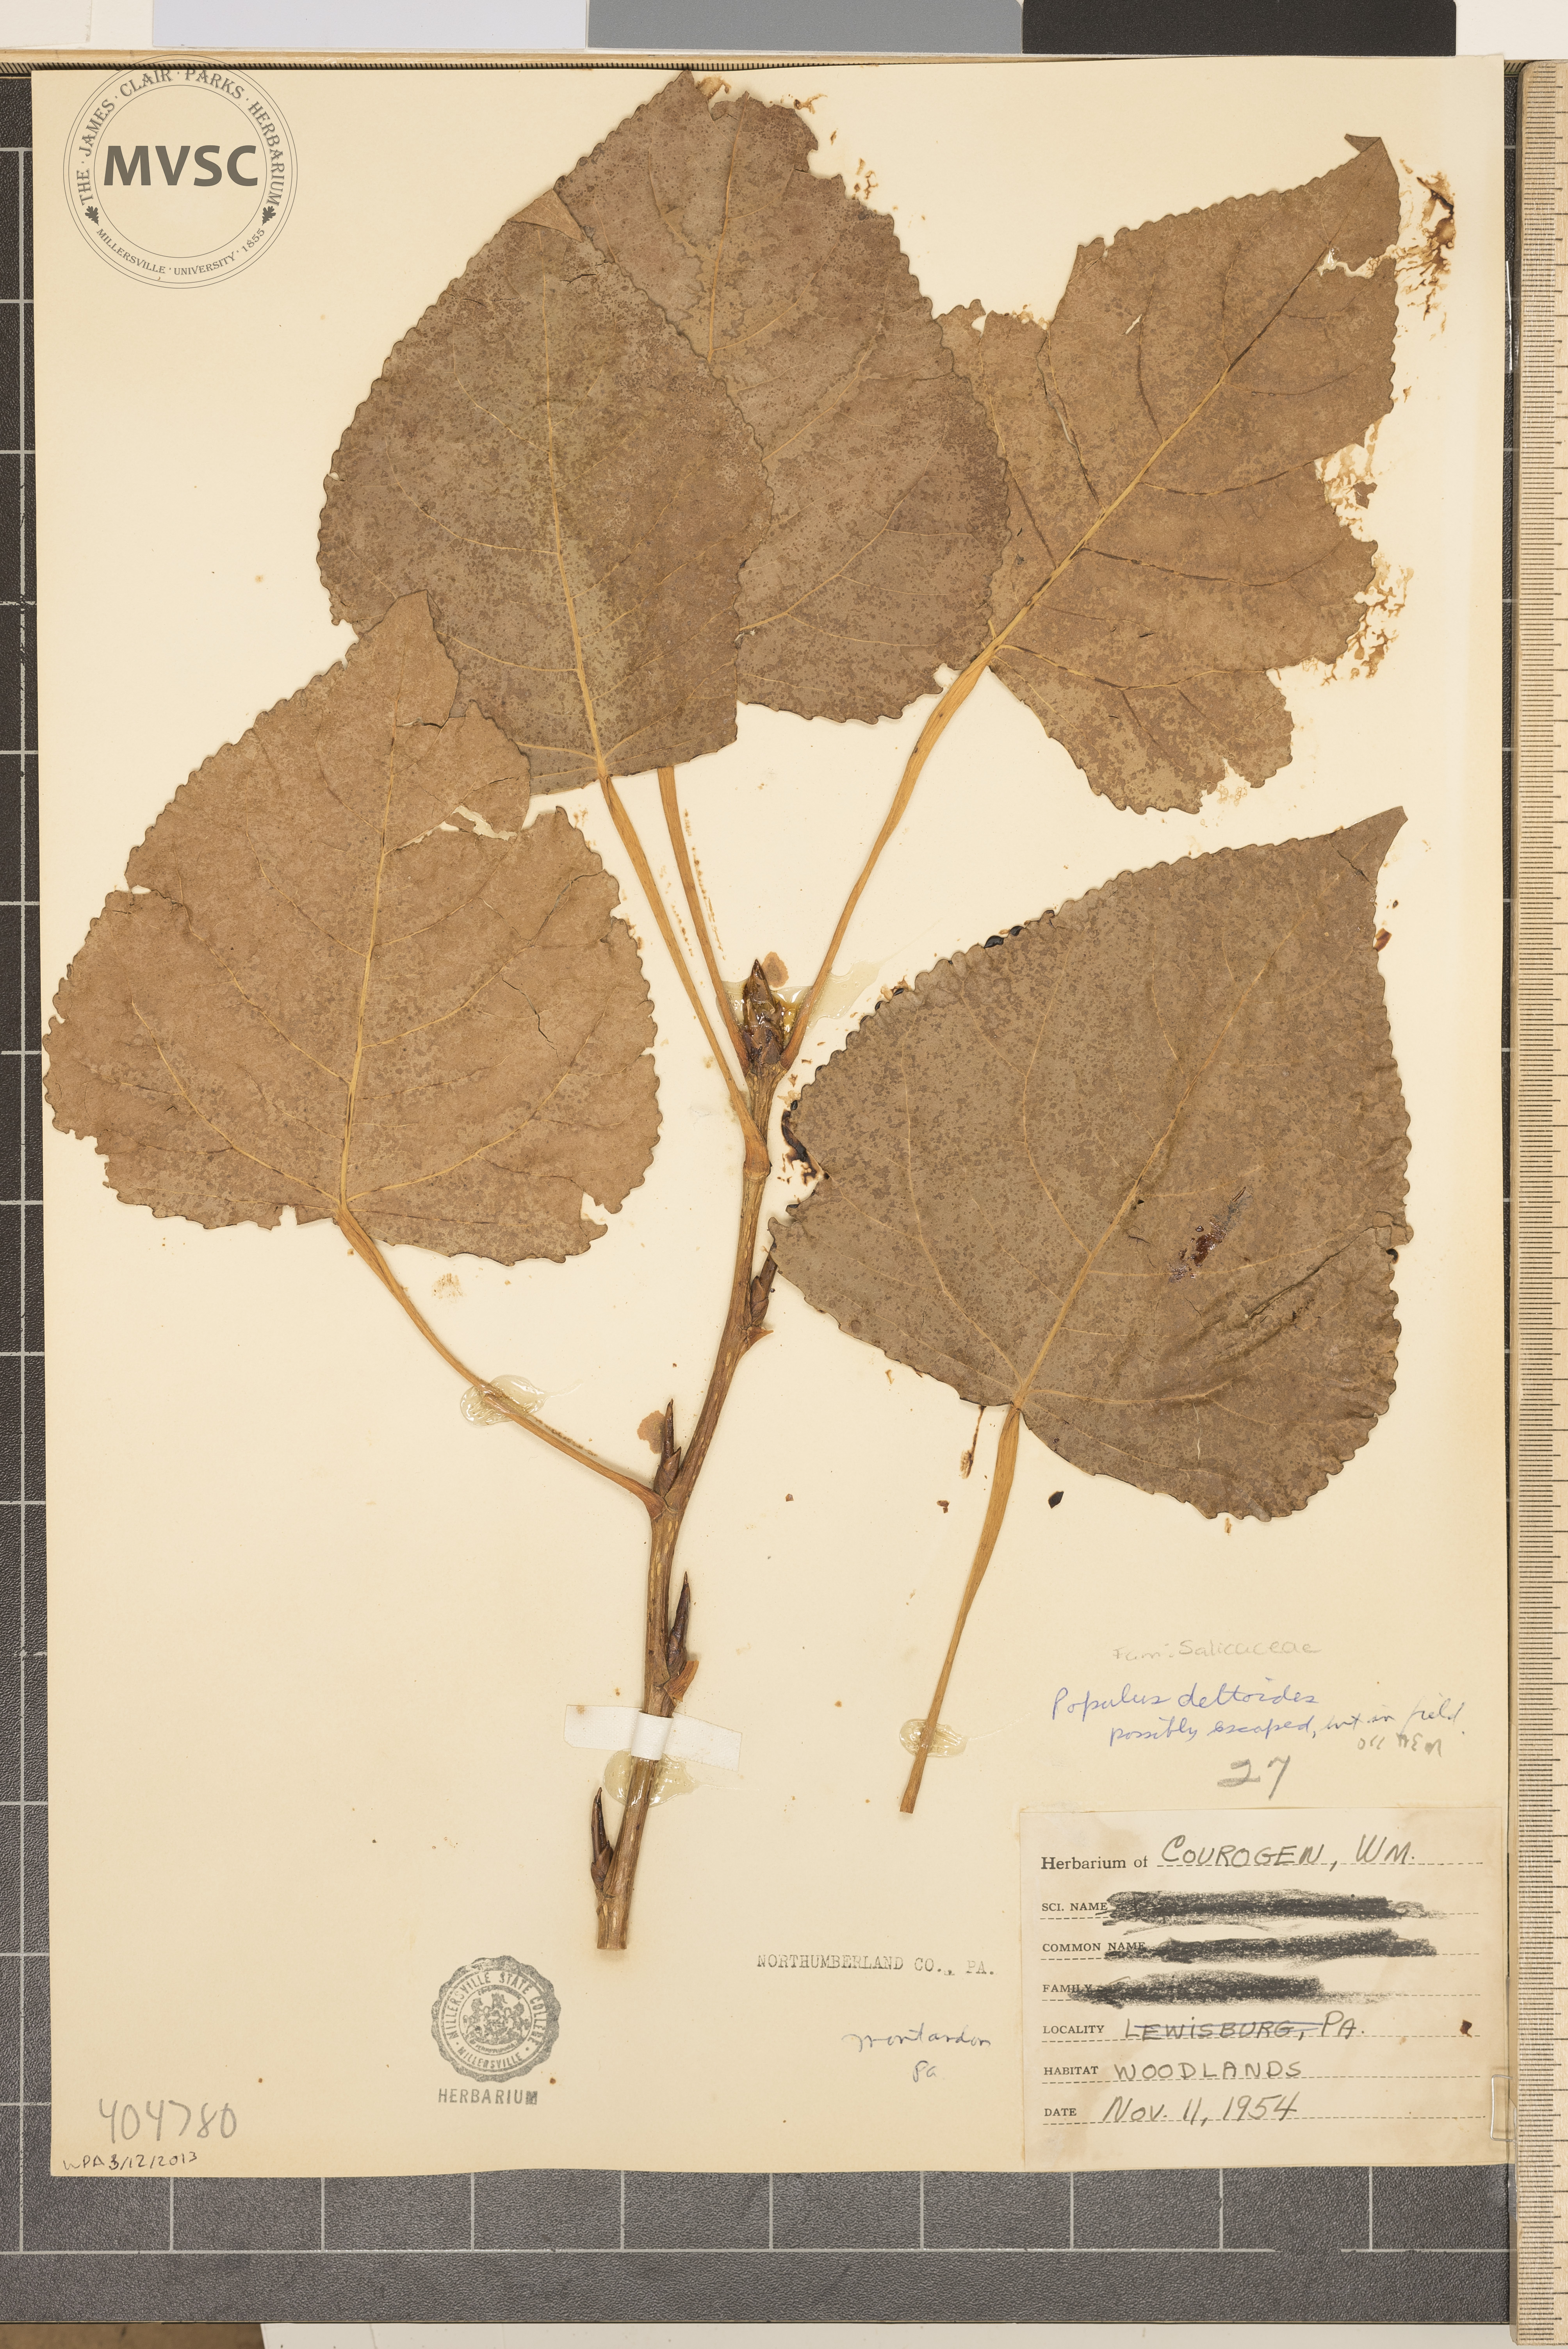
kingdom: Plantae
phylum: Tracheophyta
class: Magnoliopsida
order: Malpighiales
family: Salicaceae
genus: Populus
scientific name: Populus deltoides
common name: Eastern cottonwood
